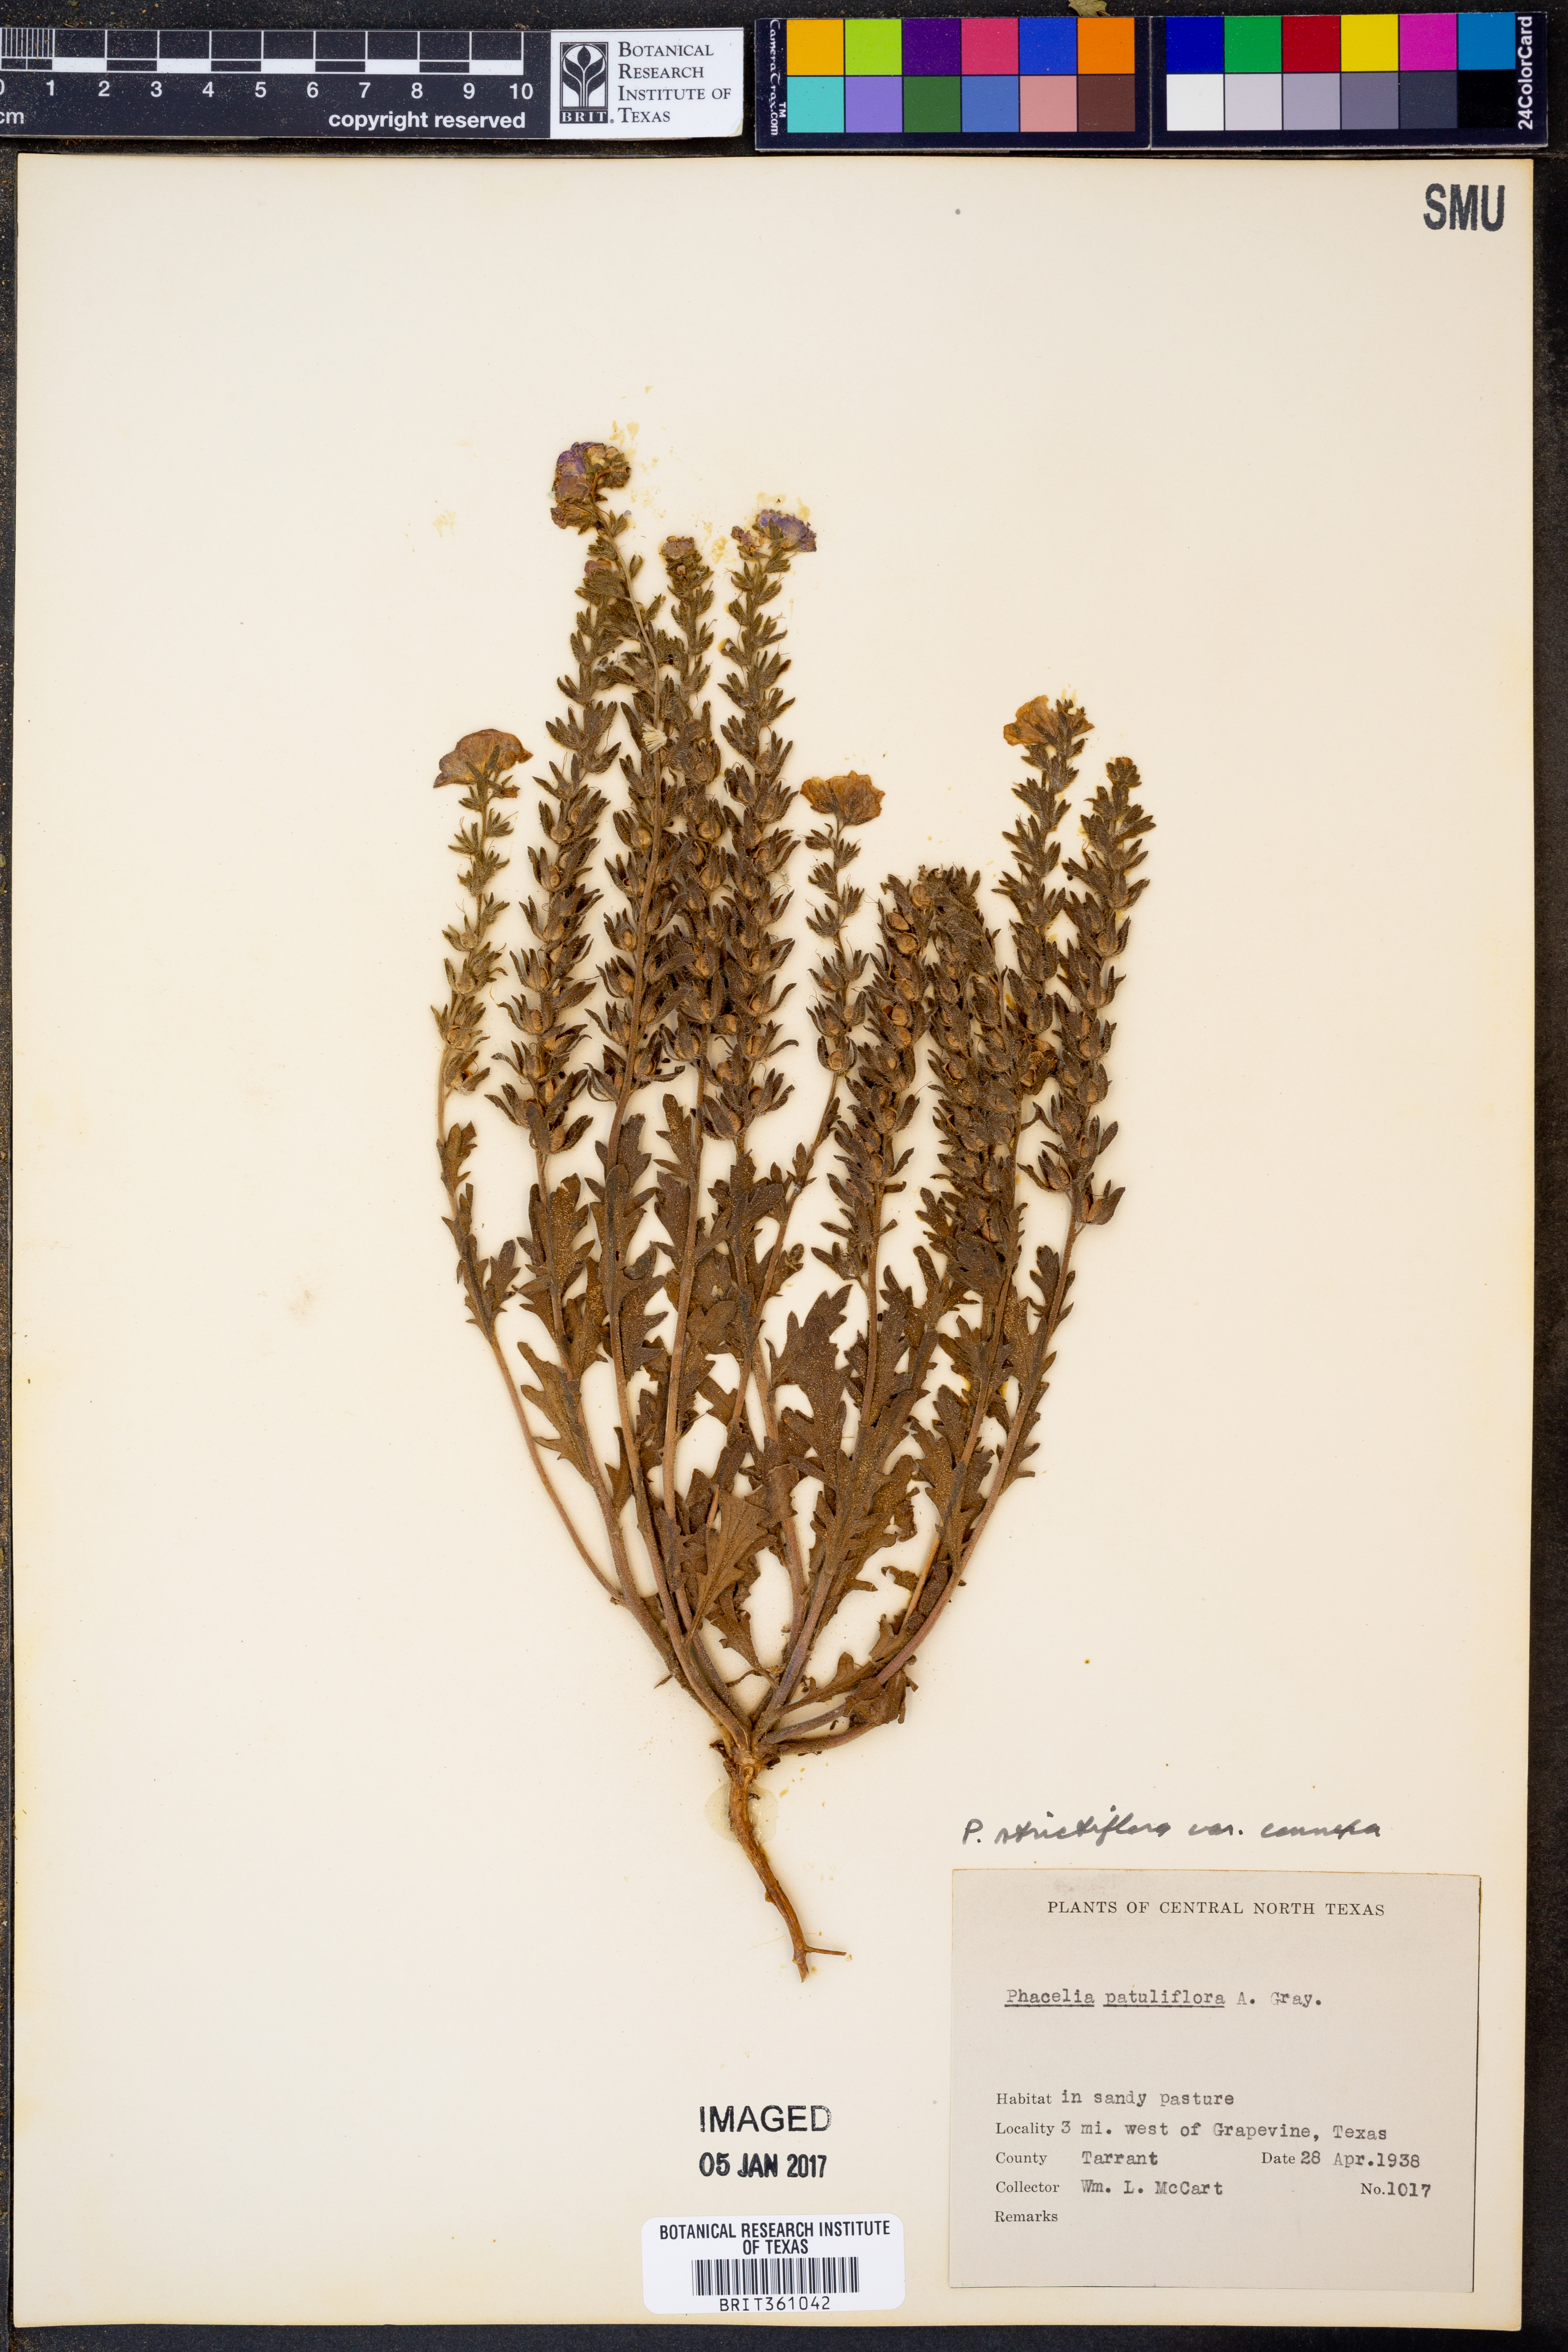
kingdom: Plantae
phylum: Tracheophyta
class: Magnoliopsida
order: Boraginales
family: Hydrophyllaceae
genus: Phacelia
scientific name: Phacelia strictiflora
